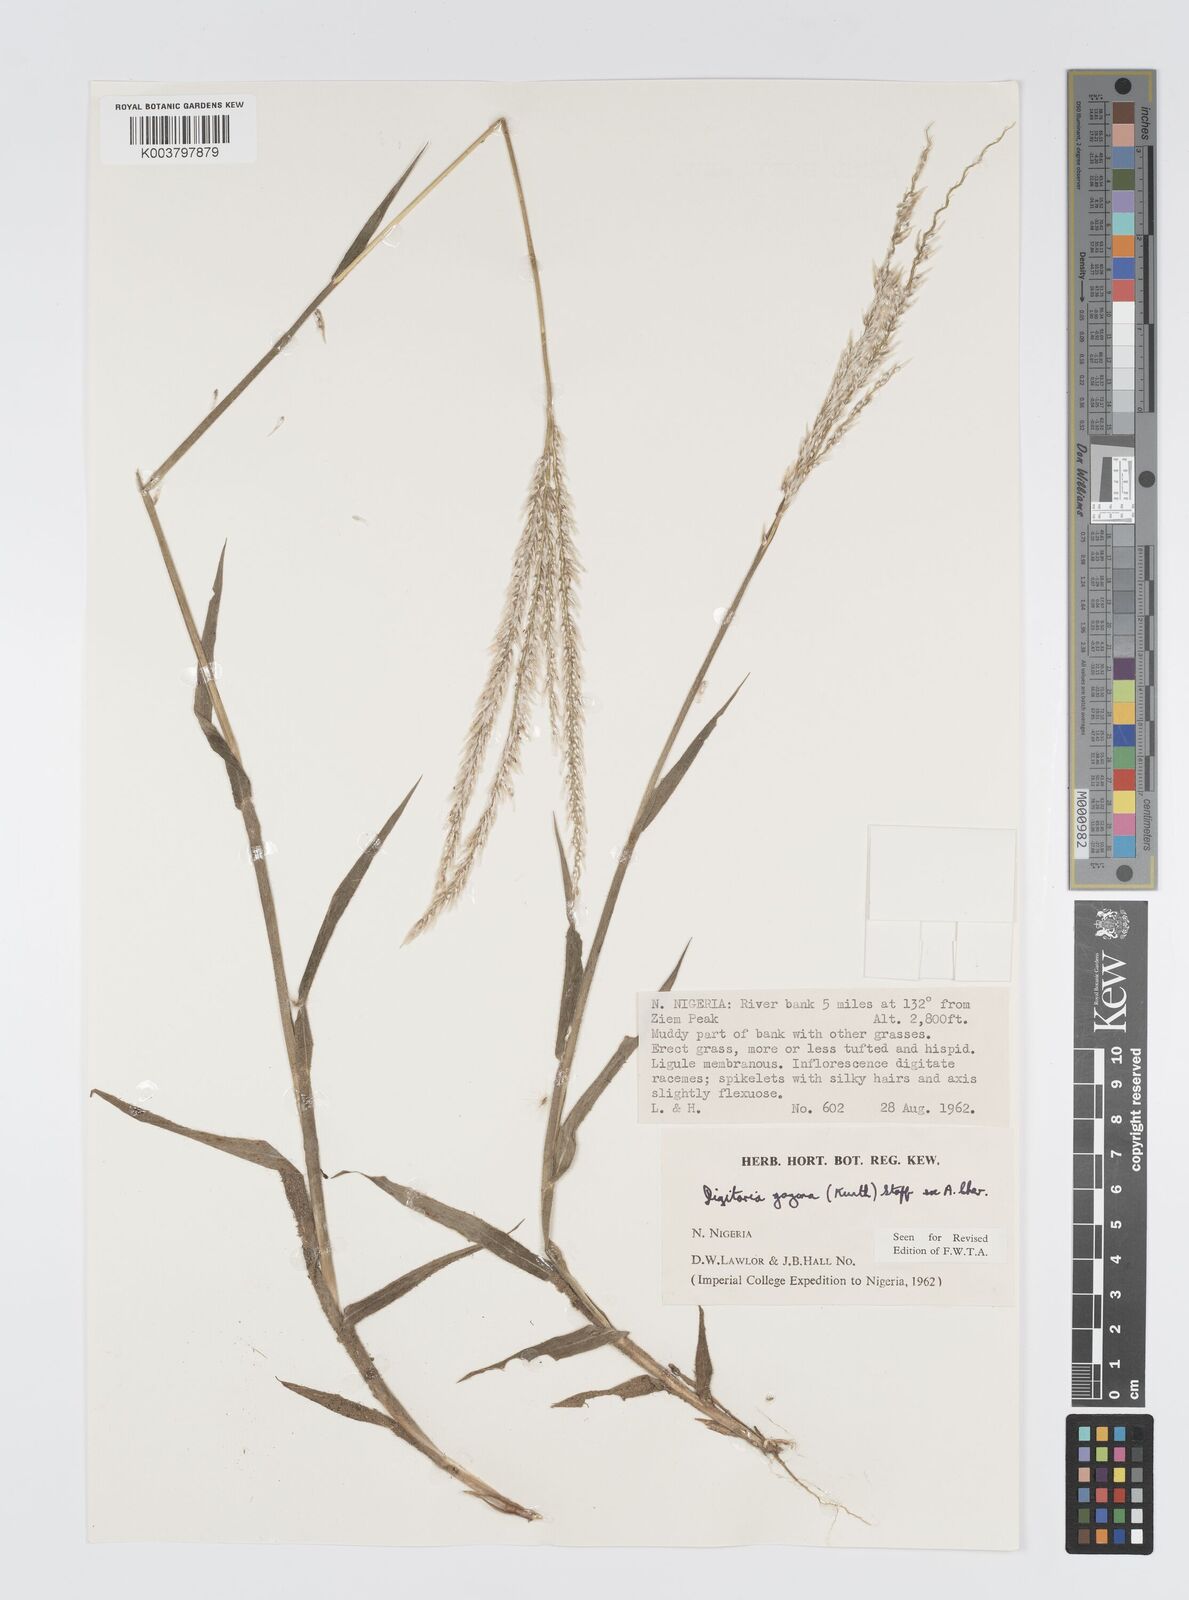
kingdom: Plantae
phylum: Tracheophyta
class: Liliopsida
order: Poales
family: Poaceae
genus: Digitaria
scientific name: Digitaria gayana
